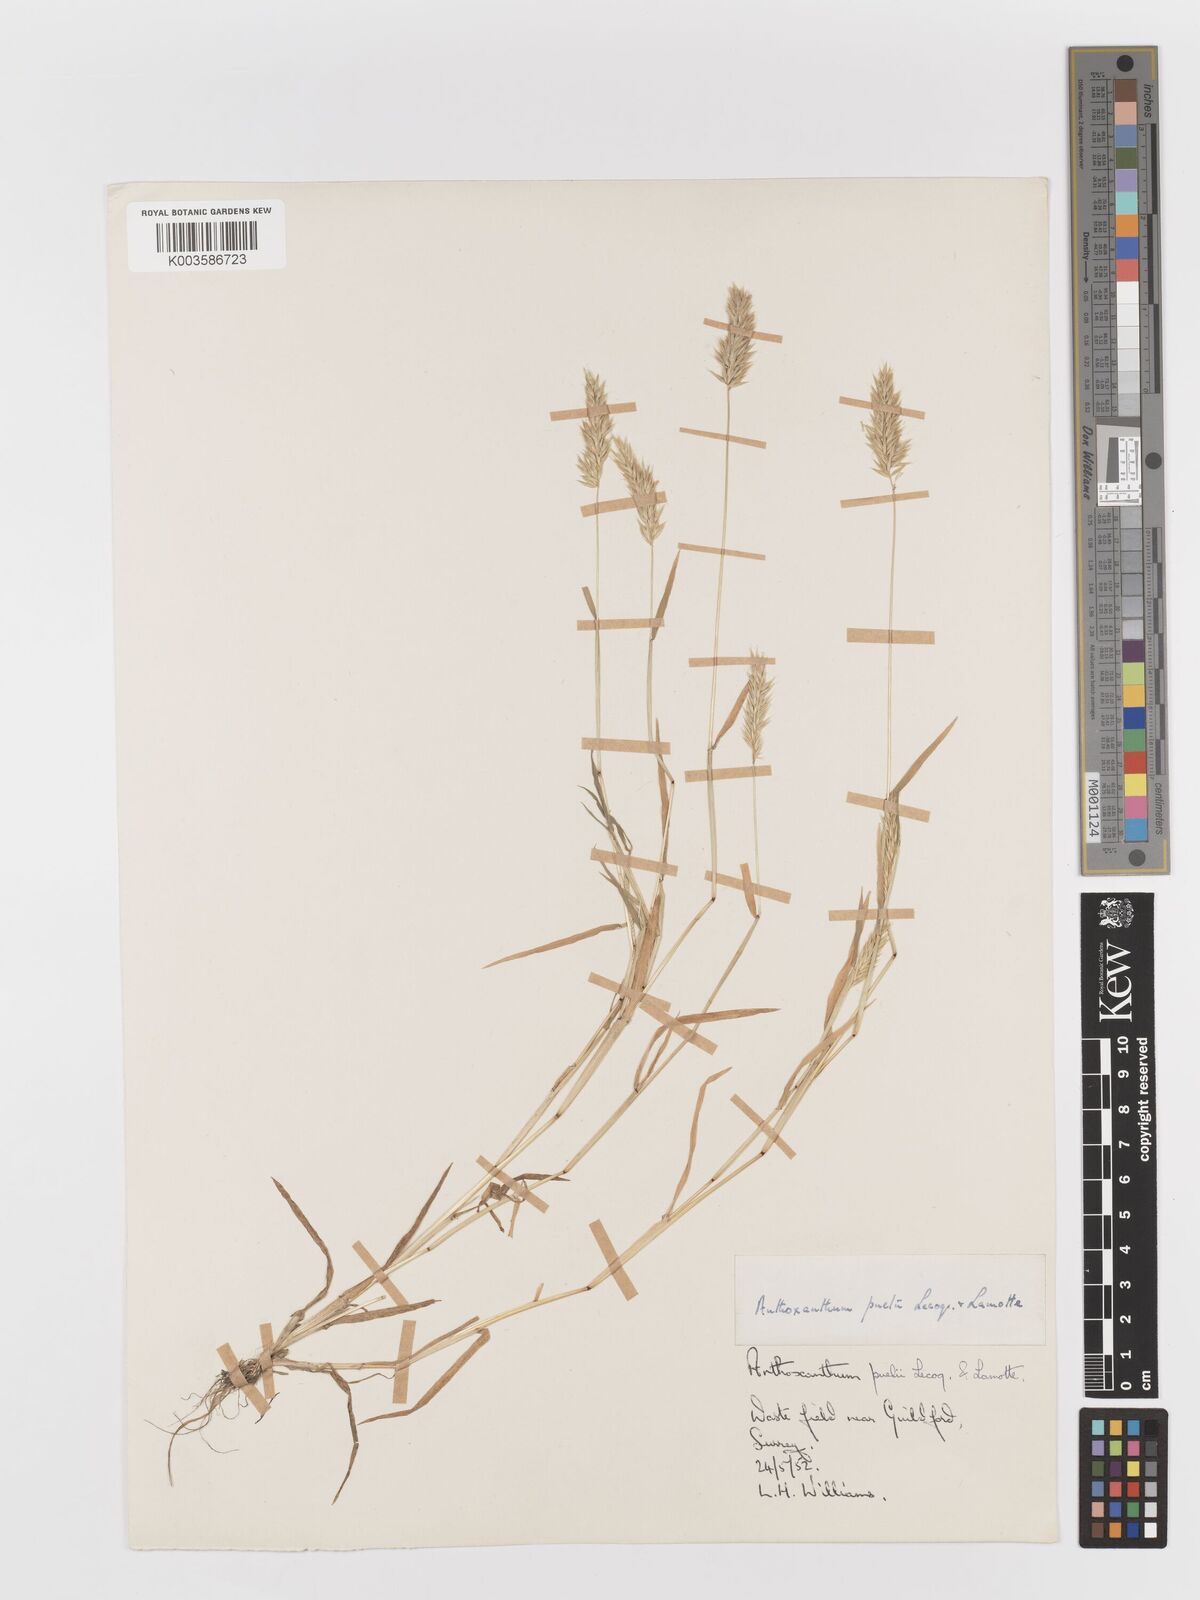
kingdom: Plantae
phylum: Tracheophyta
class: Liliopsida
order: Poales
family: Poaceae
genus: Anthoxanthum
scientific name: Anthoxanthum aristatum
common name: Annual vernal-grass
